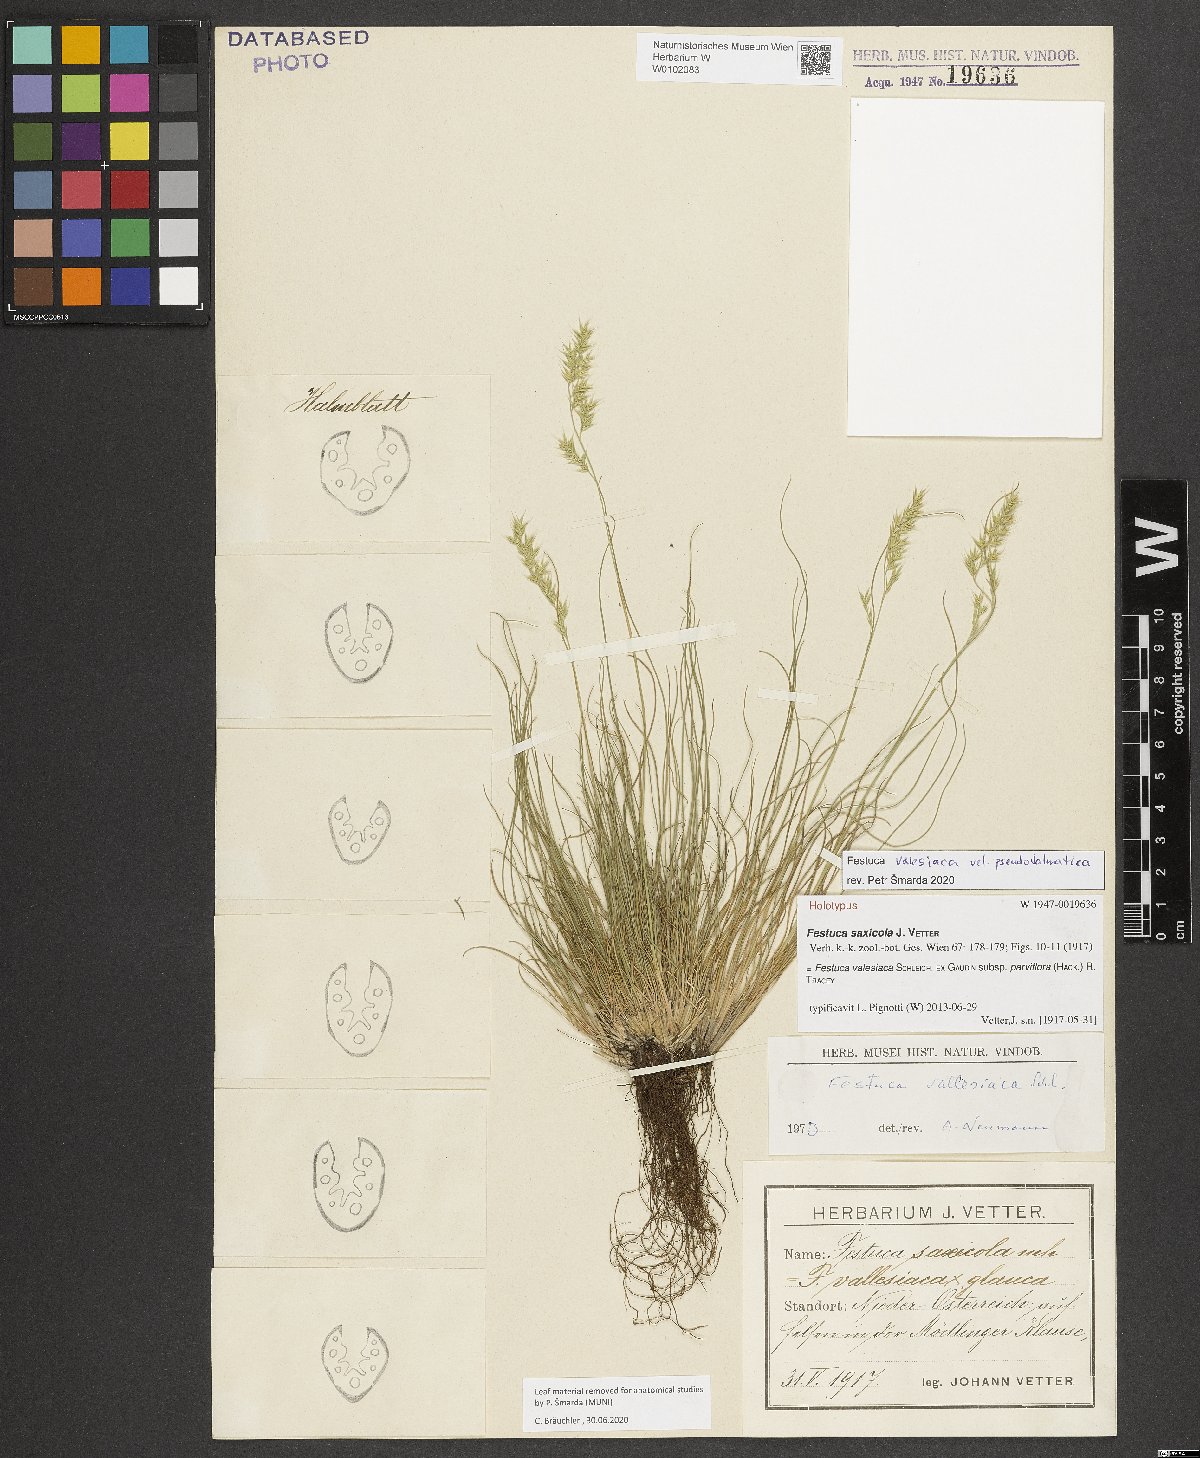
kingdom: Plantae
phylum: Tracheophyta
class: Liliopsida
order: Poales
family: Poaceae
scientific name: Poaceae
